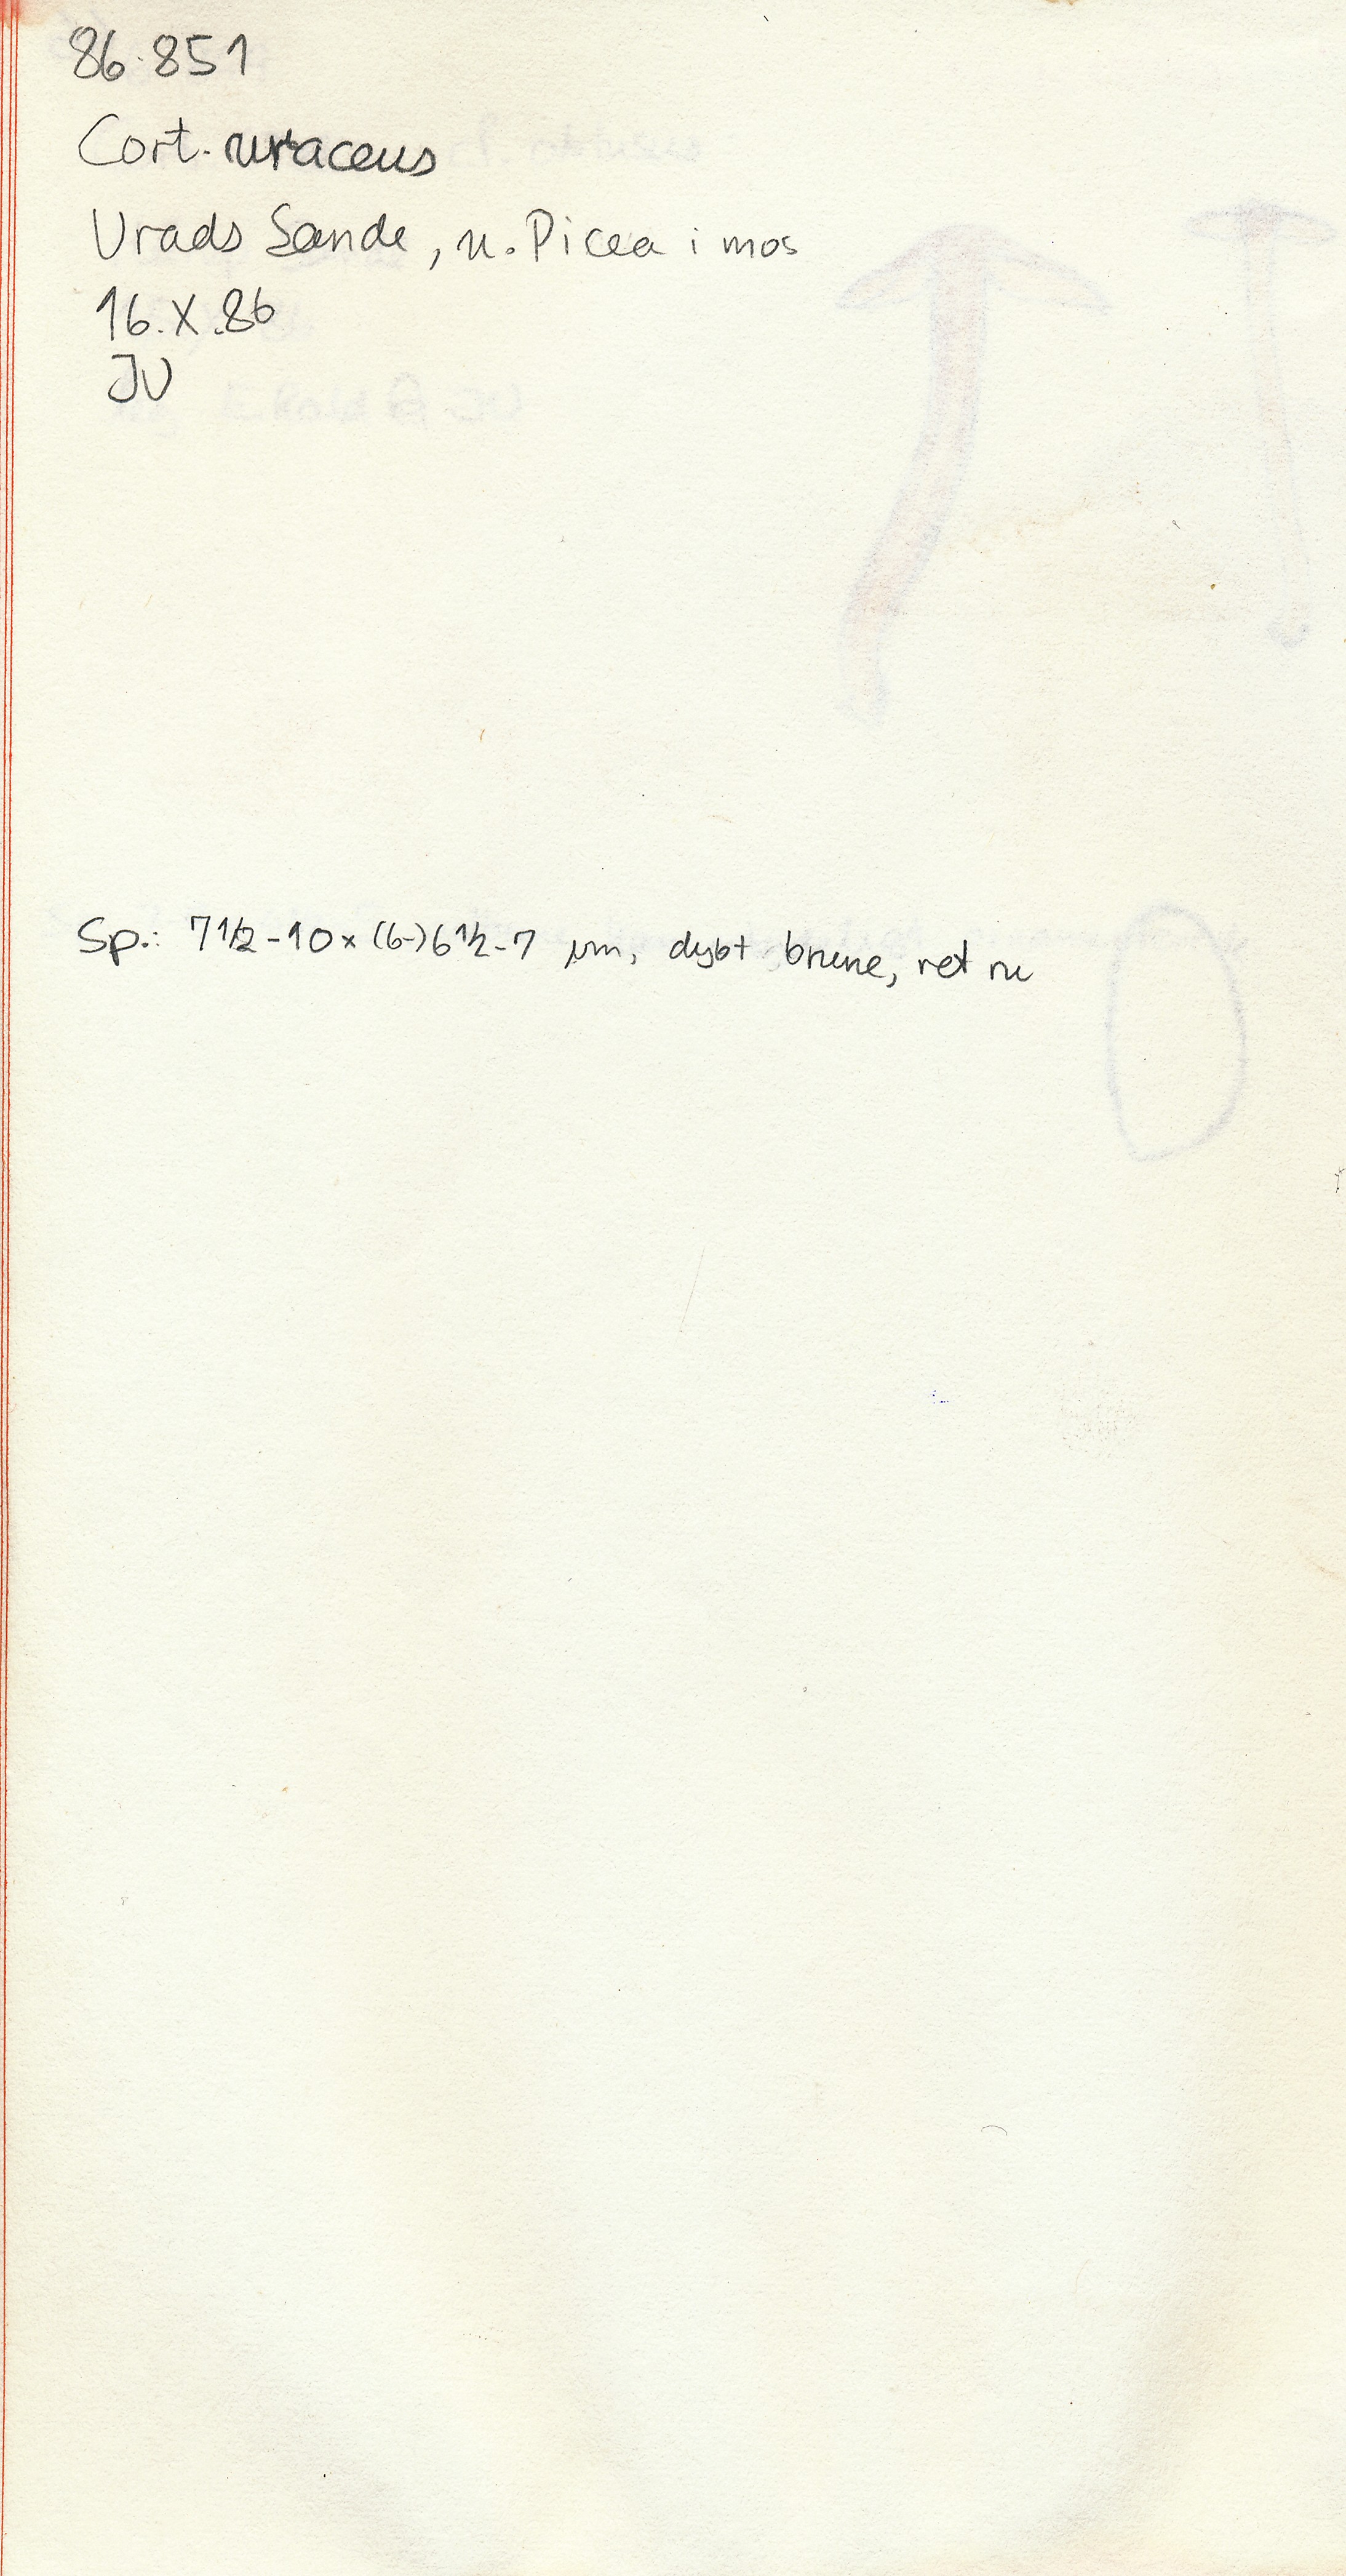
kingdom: Fungi
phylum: Basidiomycota
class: Agaricomycetes
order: Agaricales
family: Cortinariaceae
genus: Cortinarius
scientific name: Cortinarius brunneus
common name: sortbrun slørhat
